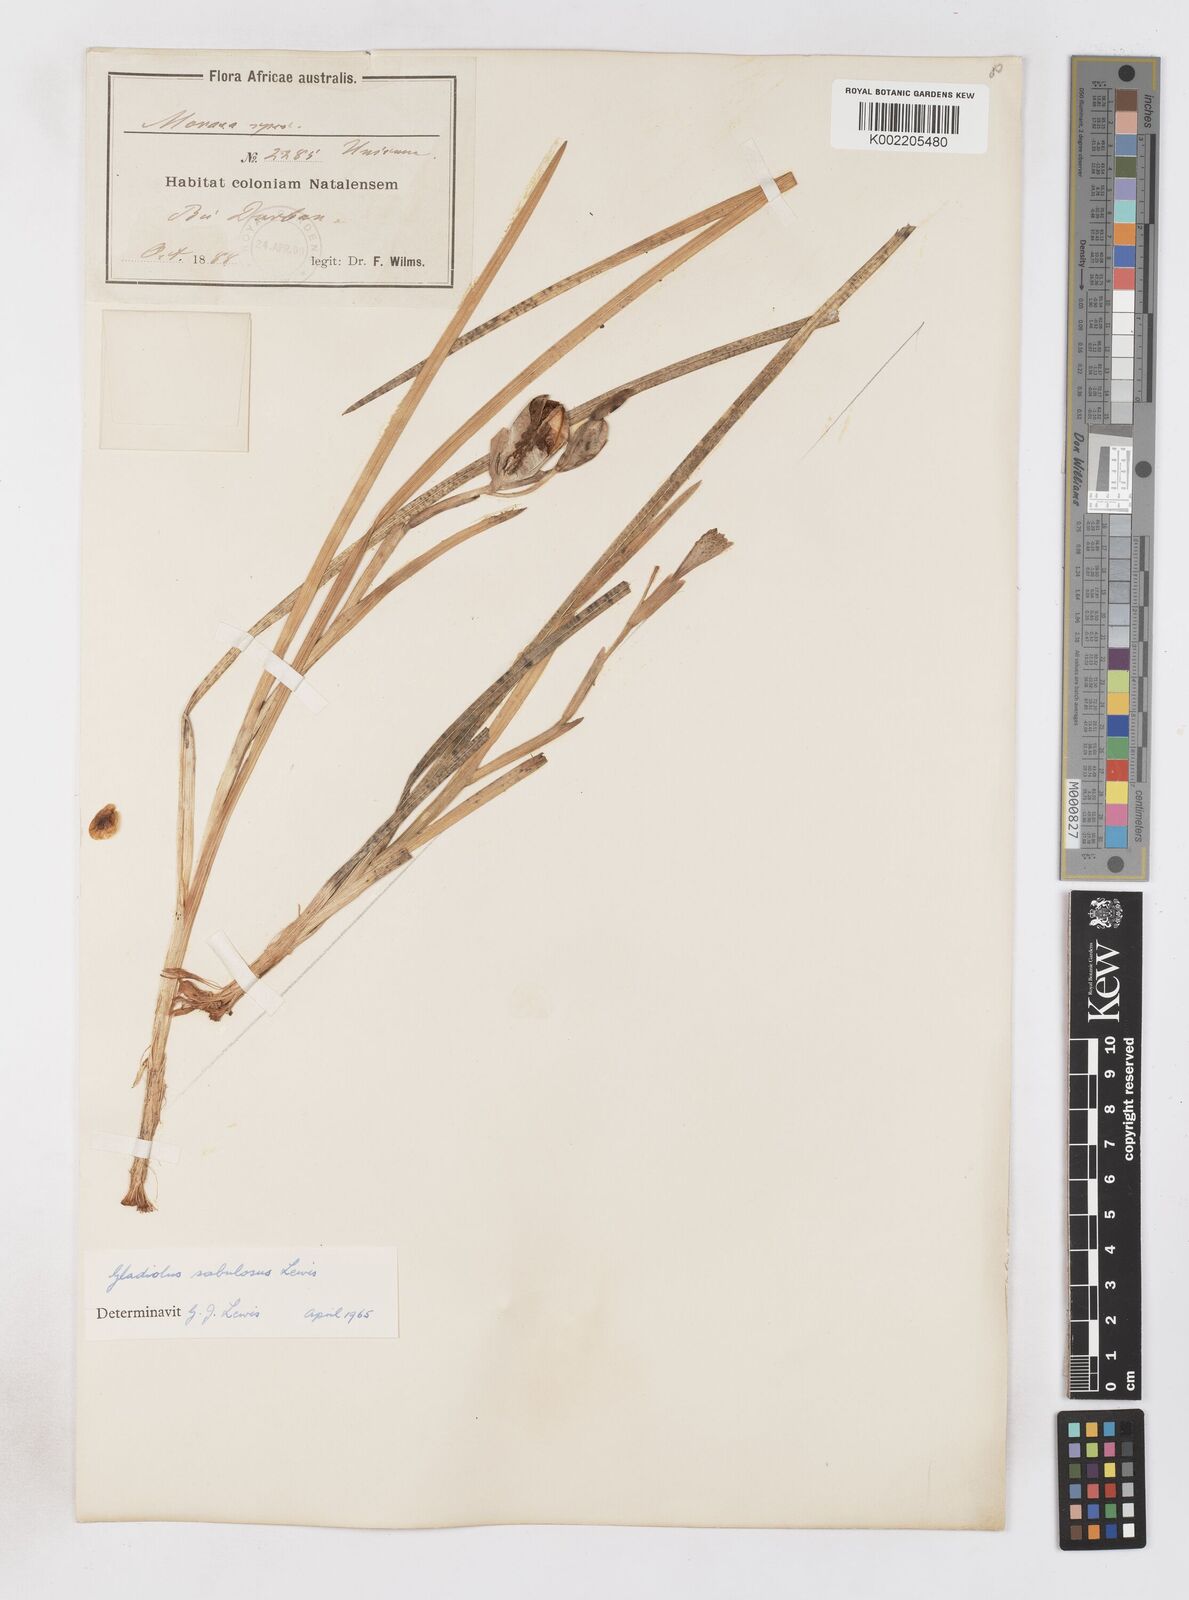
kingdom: Plantae
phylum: Tracheophyta
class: Liliopsida
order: Asparagales
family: Iridaceae
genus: Gladiolus
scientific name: Gladiolus gueinzii
